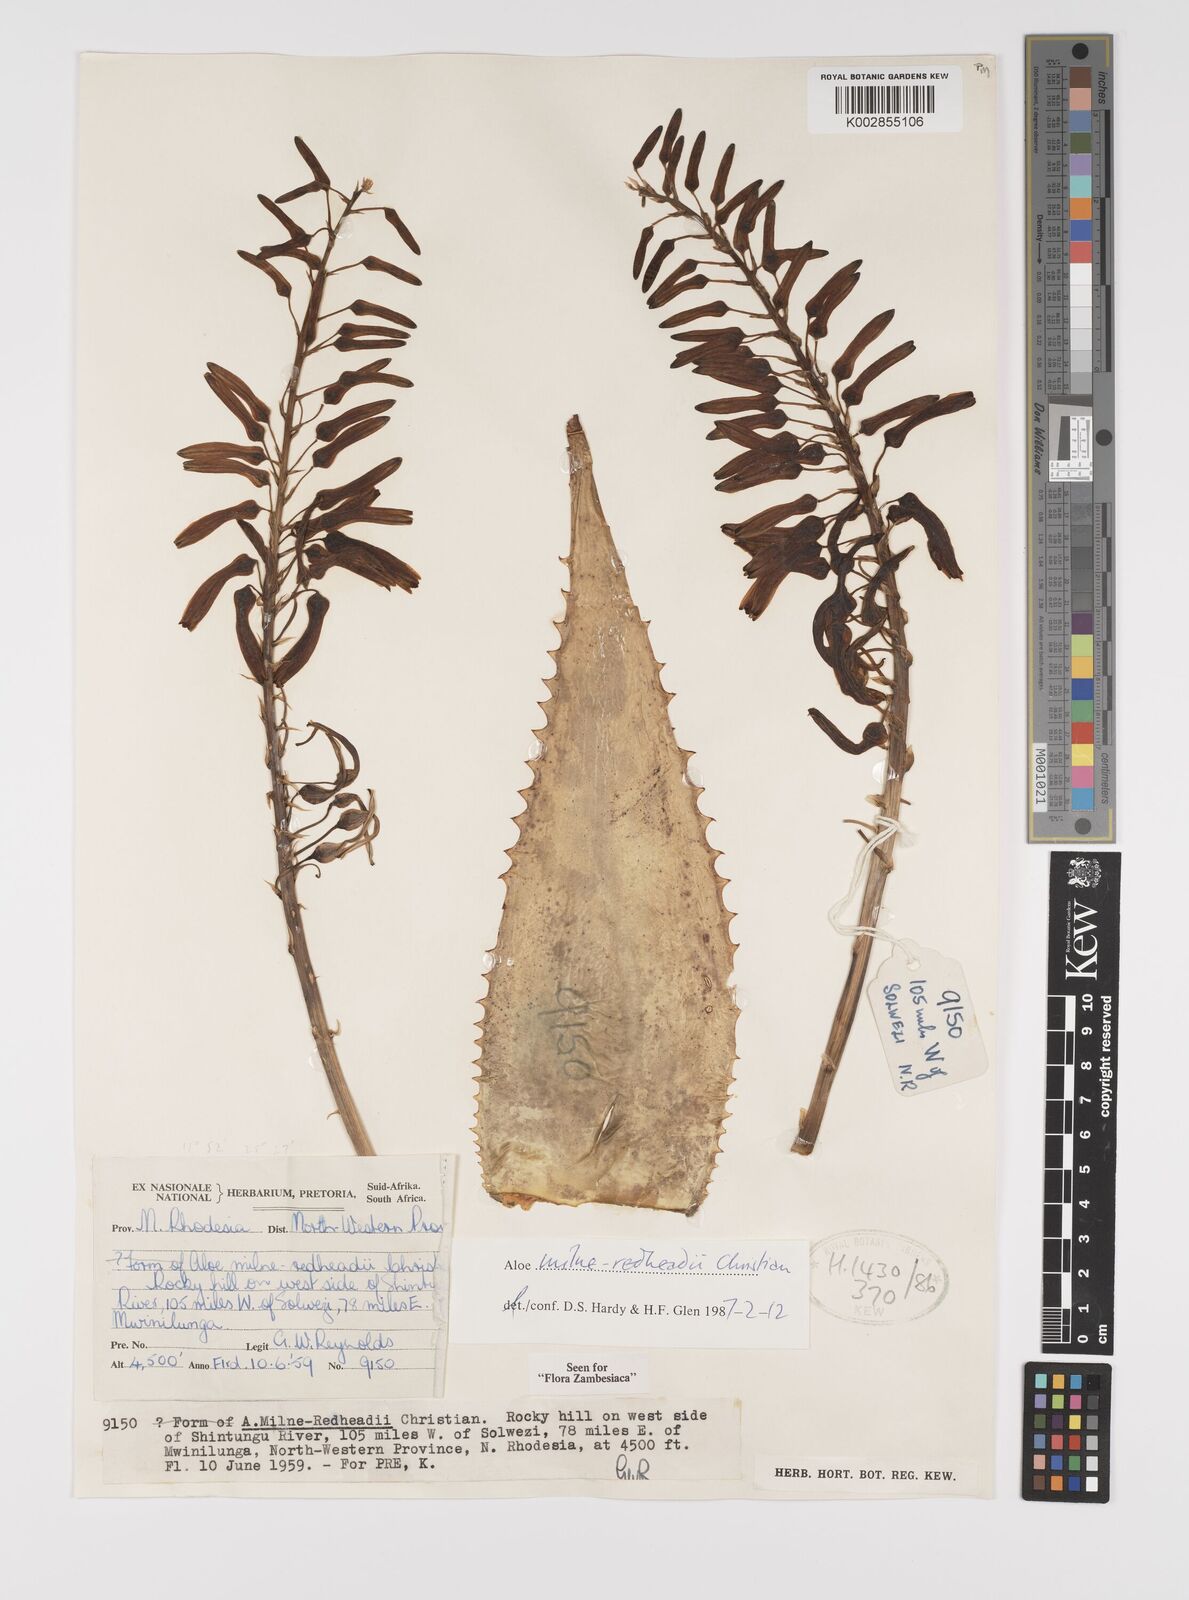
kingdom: Plantae
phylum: Tracheophyta
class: Liliopsida
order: Asparagales
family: Asphodelaceae
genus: Aloe
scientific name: Aloe milne-redheadii
